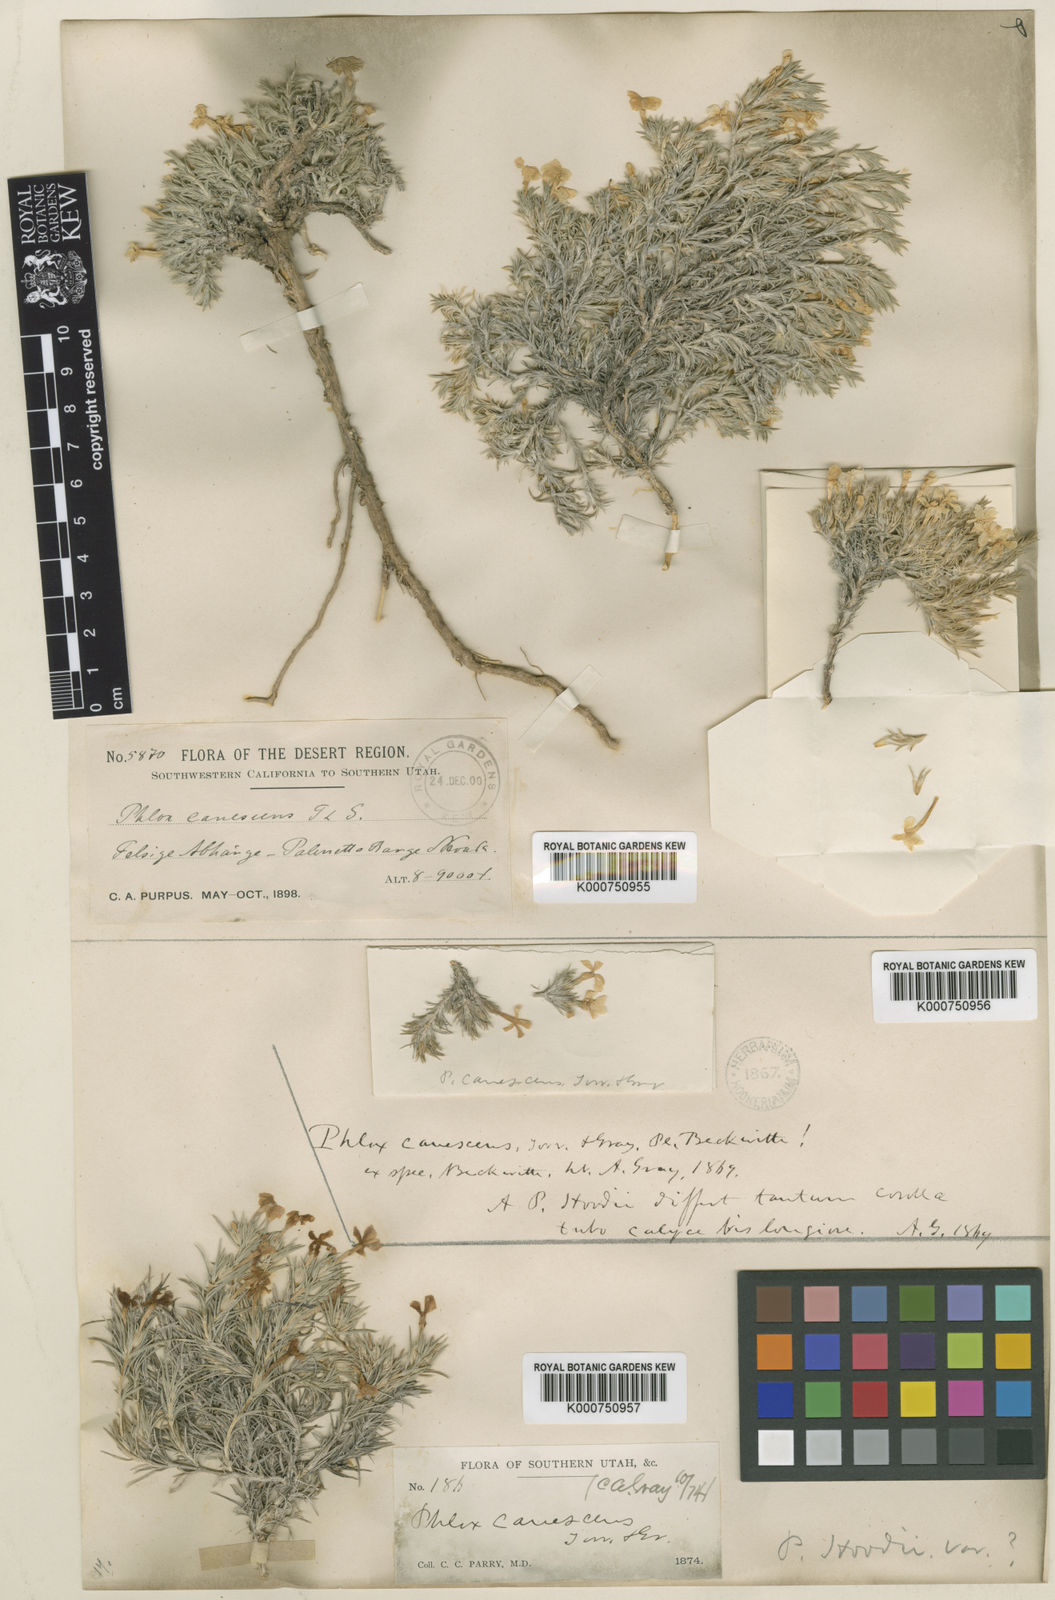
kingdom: Plantae
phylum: Tracheophyta
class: Magnoliopsida
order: Ericales
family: Polemoniaceae
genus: Phlox
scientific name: Phlox hoodii
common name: Moss phlox
